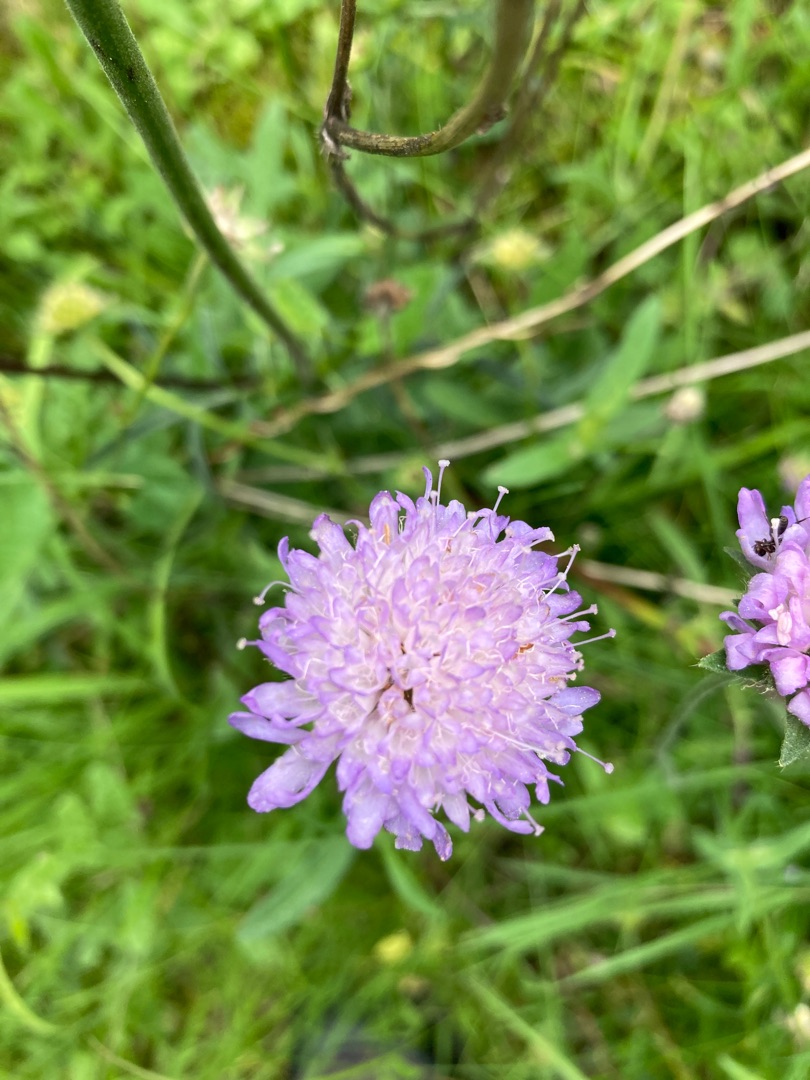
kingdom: Plantae
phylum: Tracheophyta
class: Magnoliopsida
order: Dipsacales
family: Caprifoliaceae
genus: Knautia
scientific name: Knautia arvensis
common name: Blåhat
